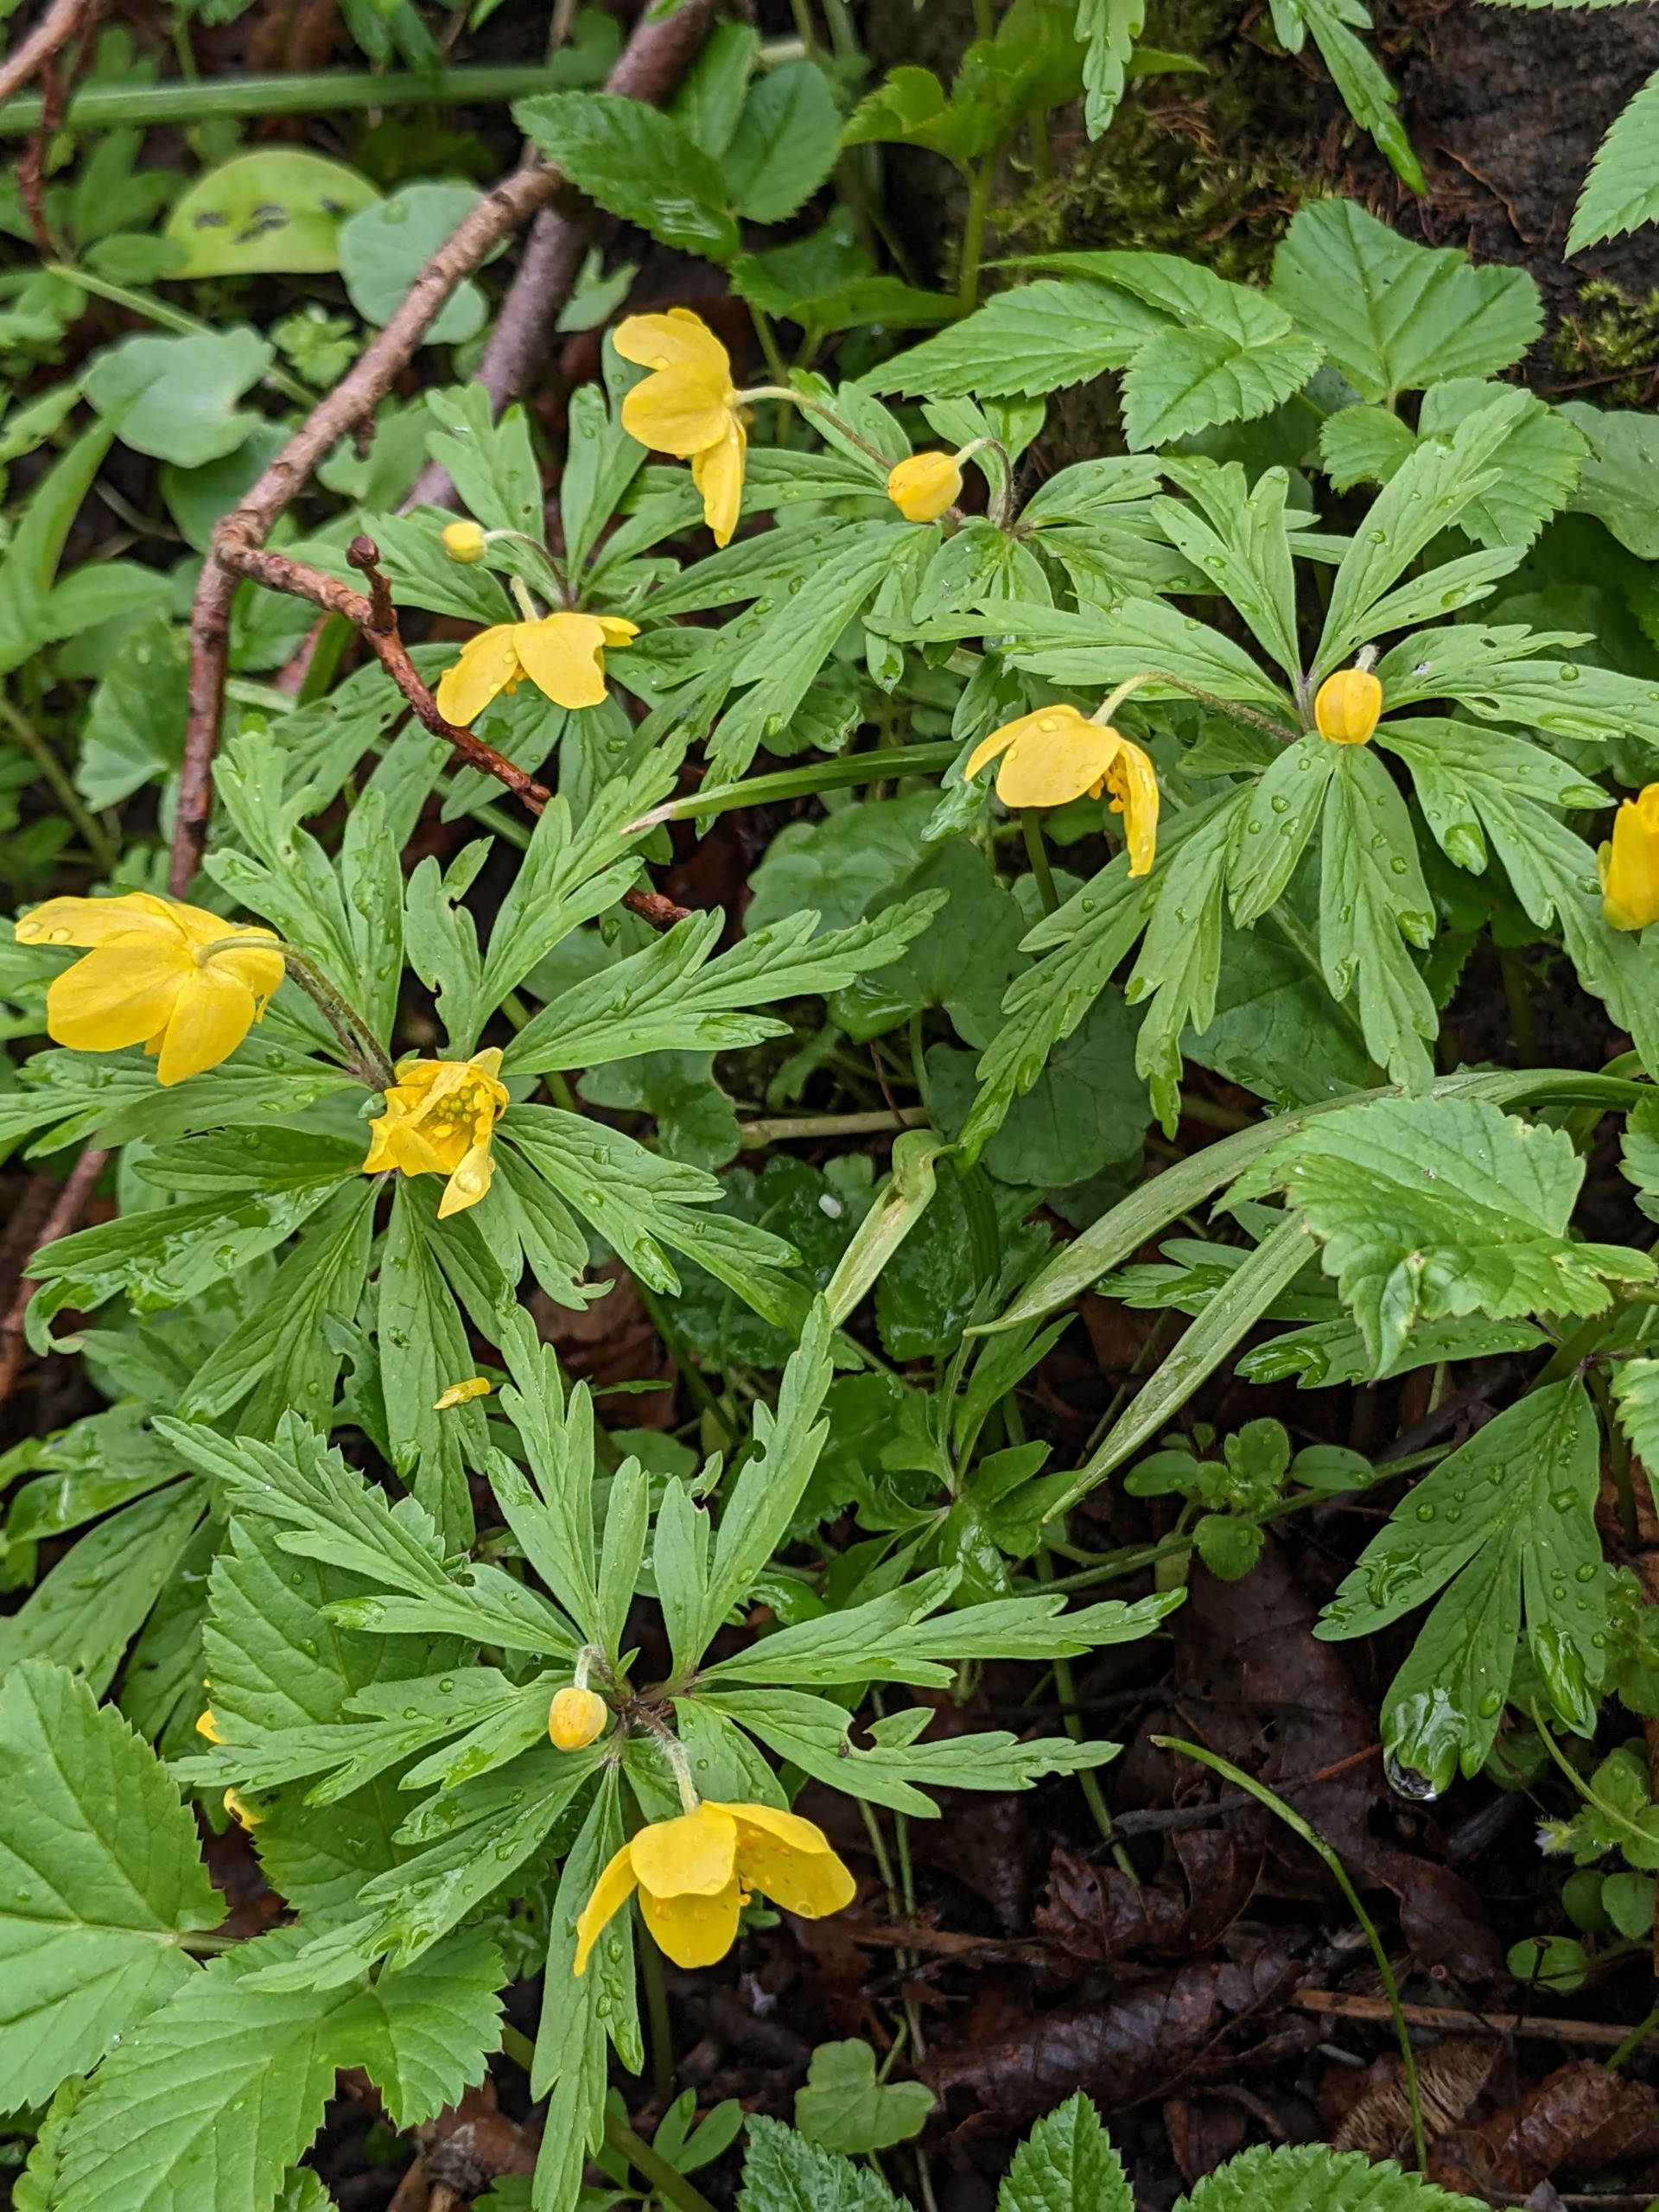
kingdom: Plantae
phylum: Tracheophyta
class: Magnoliopsida
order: Ranunculales
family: Ranunculaceae
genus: Anemone
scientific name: Anemone ranunculoides
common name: Gul anemone
